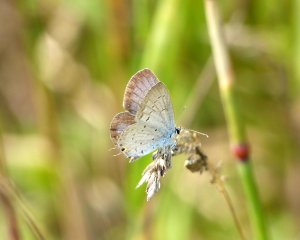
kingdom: Animalia
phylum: Arthropoda
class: Insecta
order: Lepidoptera
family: Lycaenidae
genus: Elkalyce
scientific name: Elkalyce comyntas
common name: Eastern Tailed-Blue
